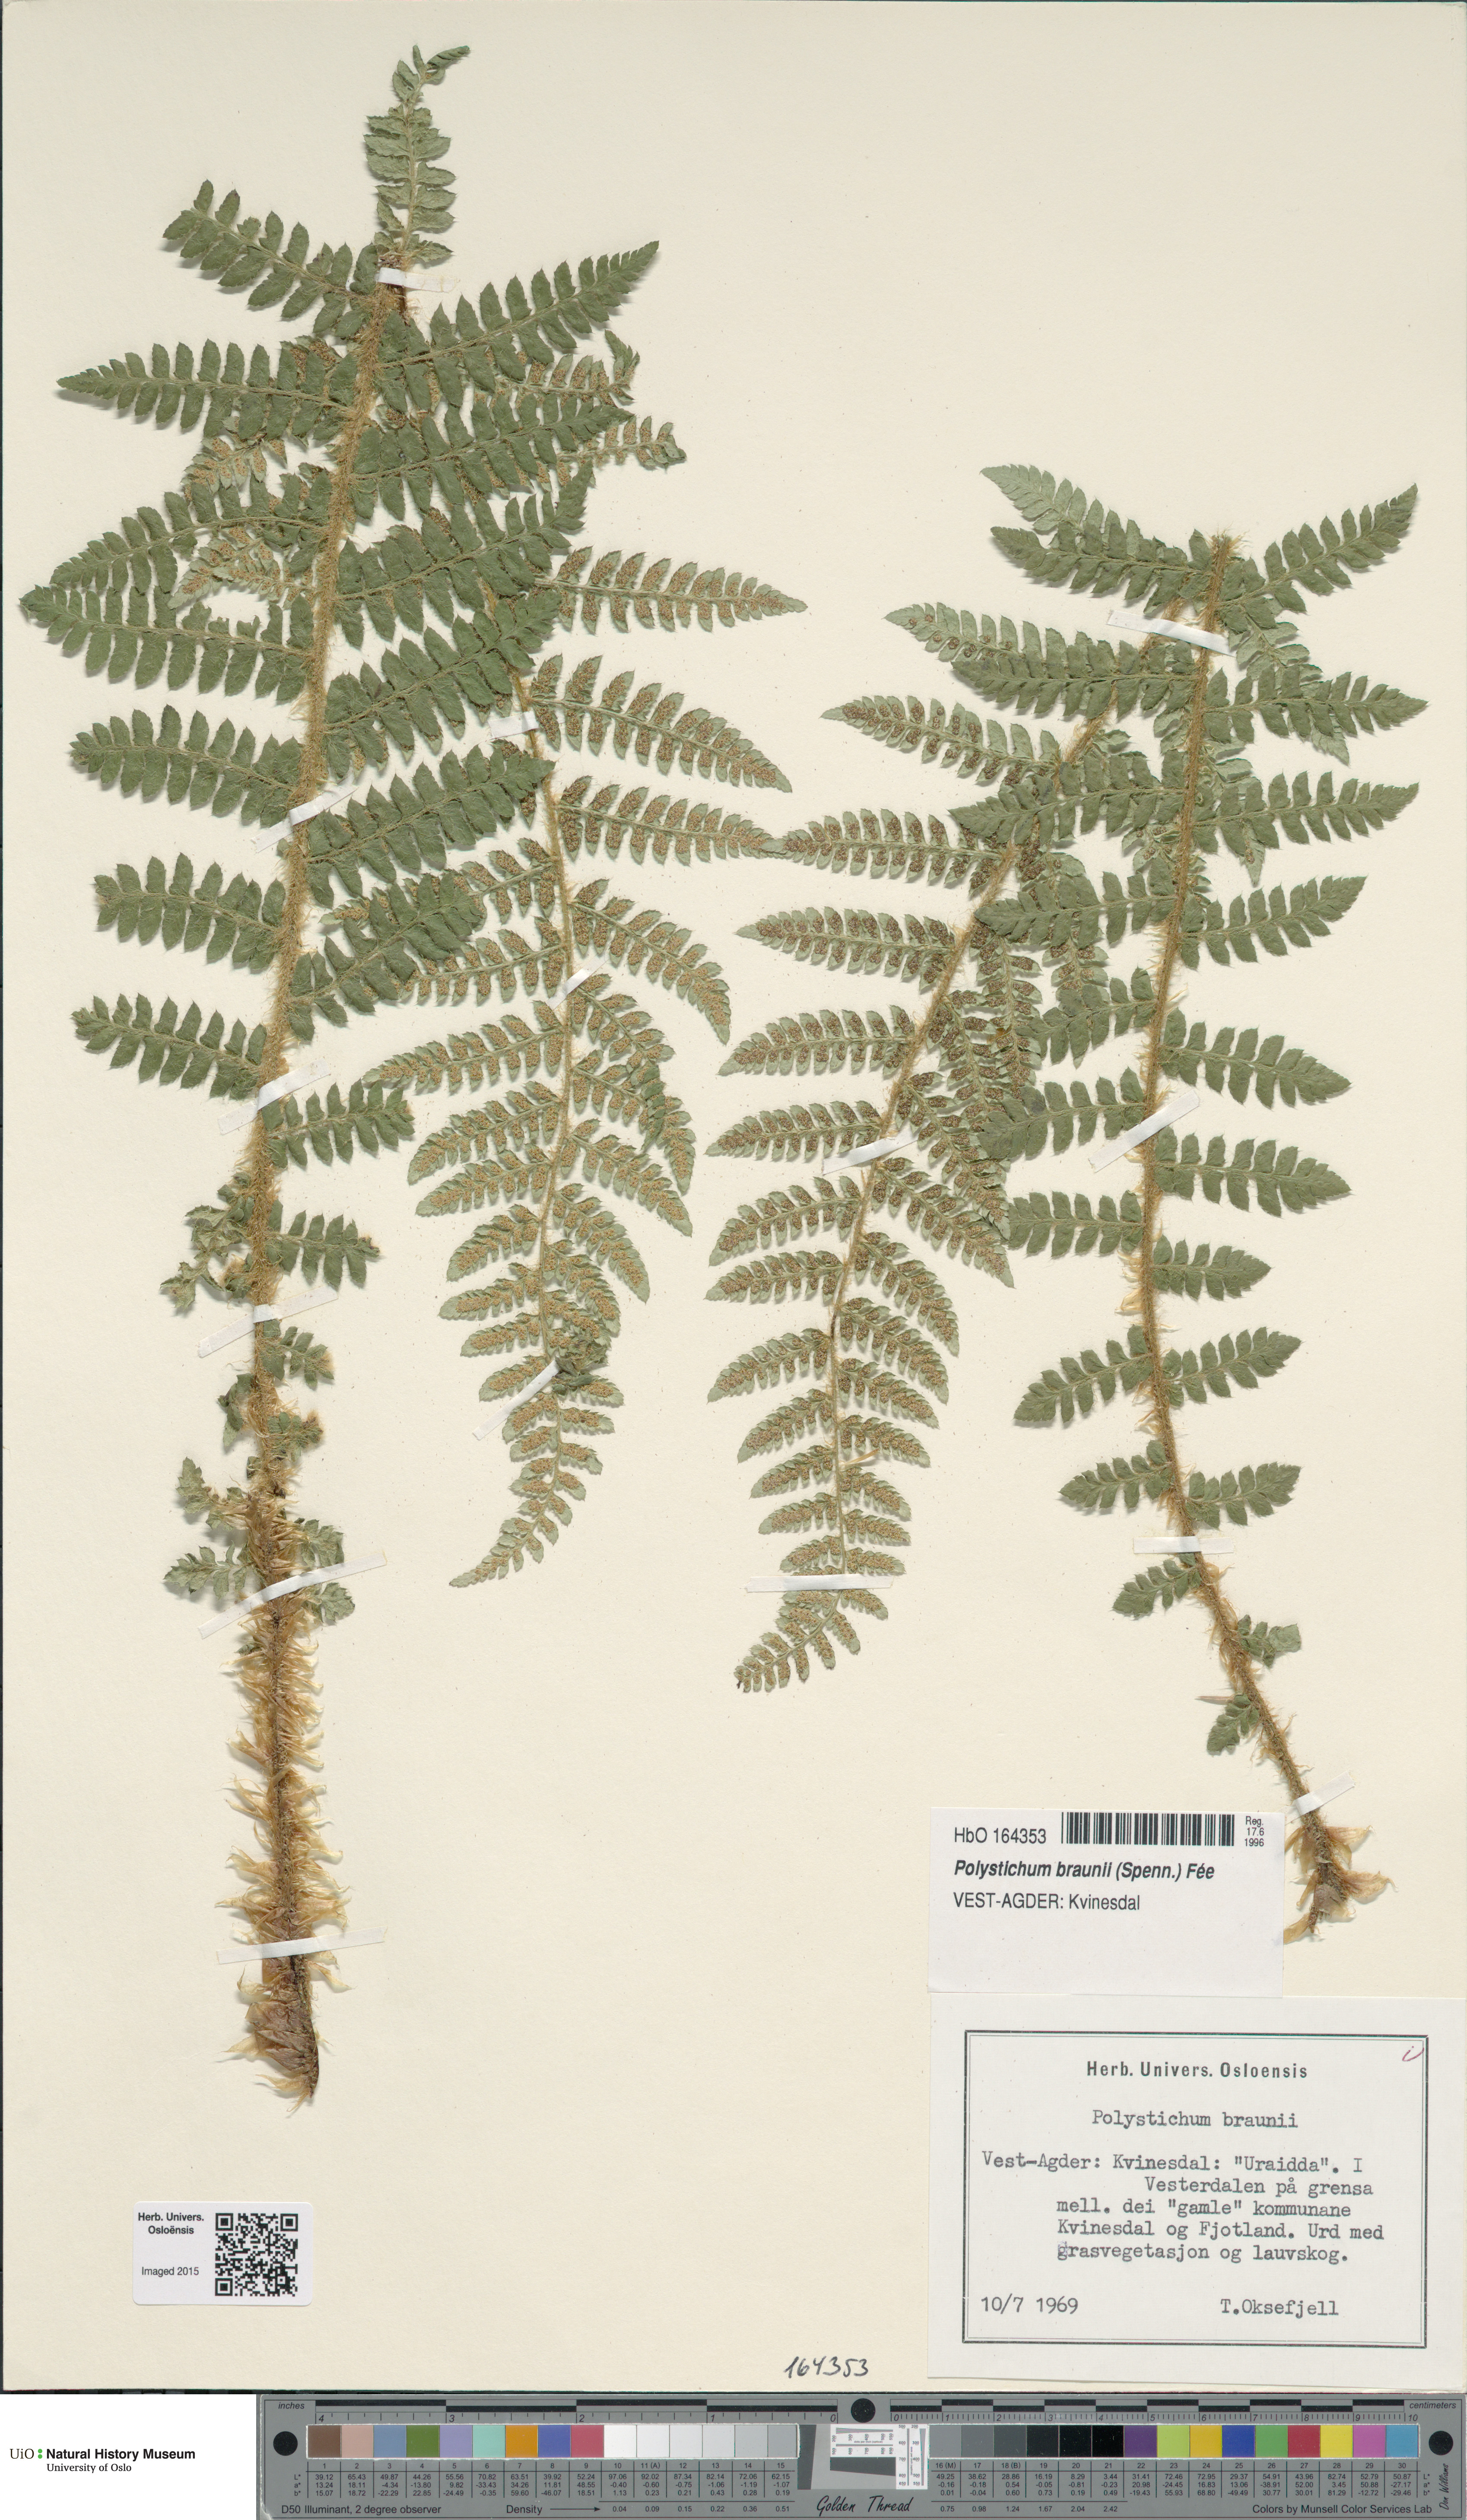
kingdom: Plantae
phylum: Tracheophyta
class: Polypodiopsida
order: Polypodiales
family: Dryopteridaceae
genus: Polystichum
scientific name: Polystichum braunii
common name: Braun's holly fern
